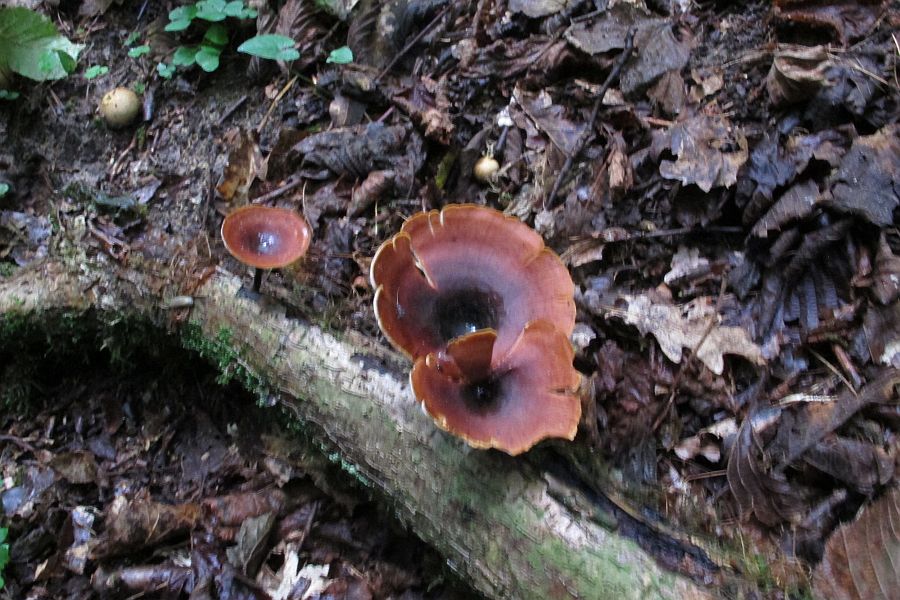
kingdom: Fungi
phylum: Basidiomycota
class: Agaricomycetes
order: Polyporales
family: Polyporaceae
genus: Picipes
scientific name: Picipes tubaeformis
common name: trompet-stilkporesvamp
